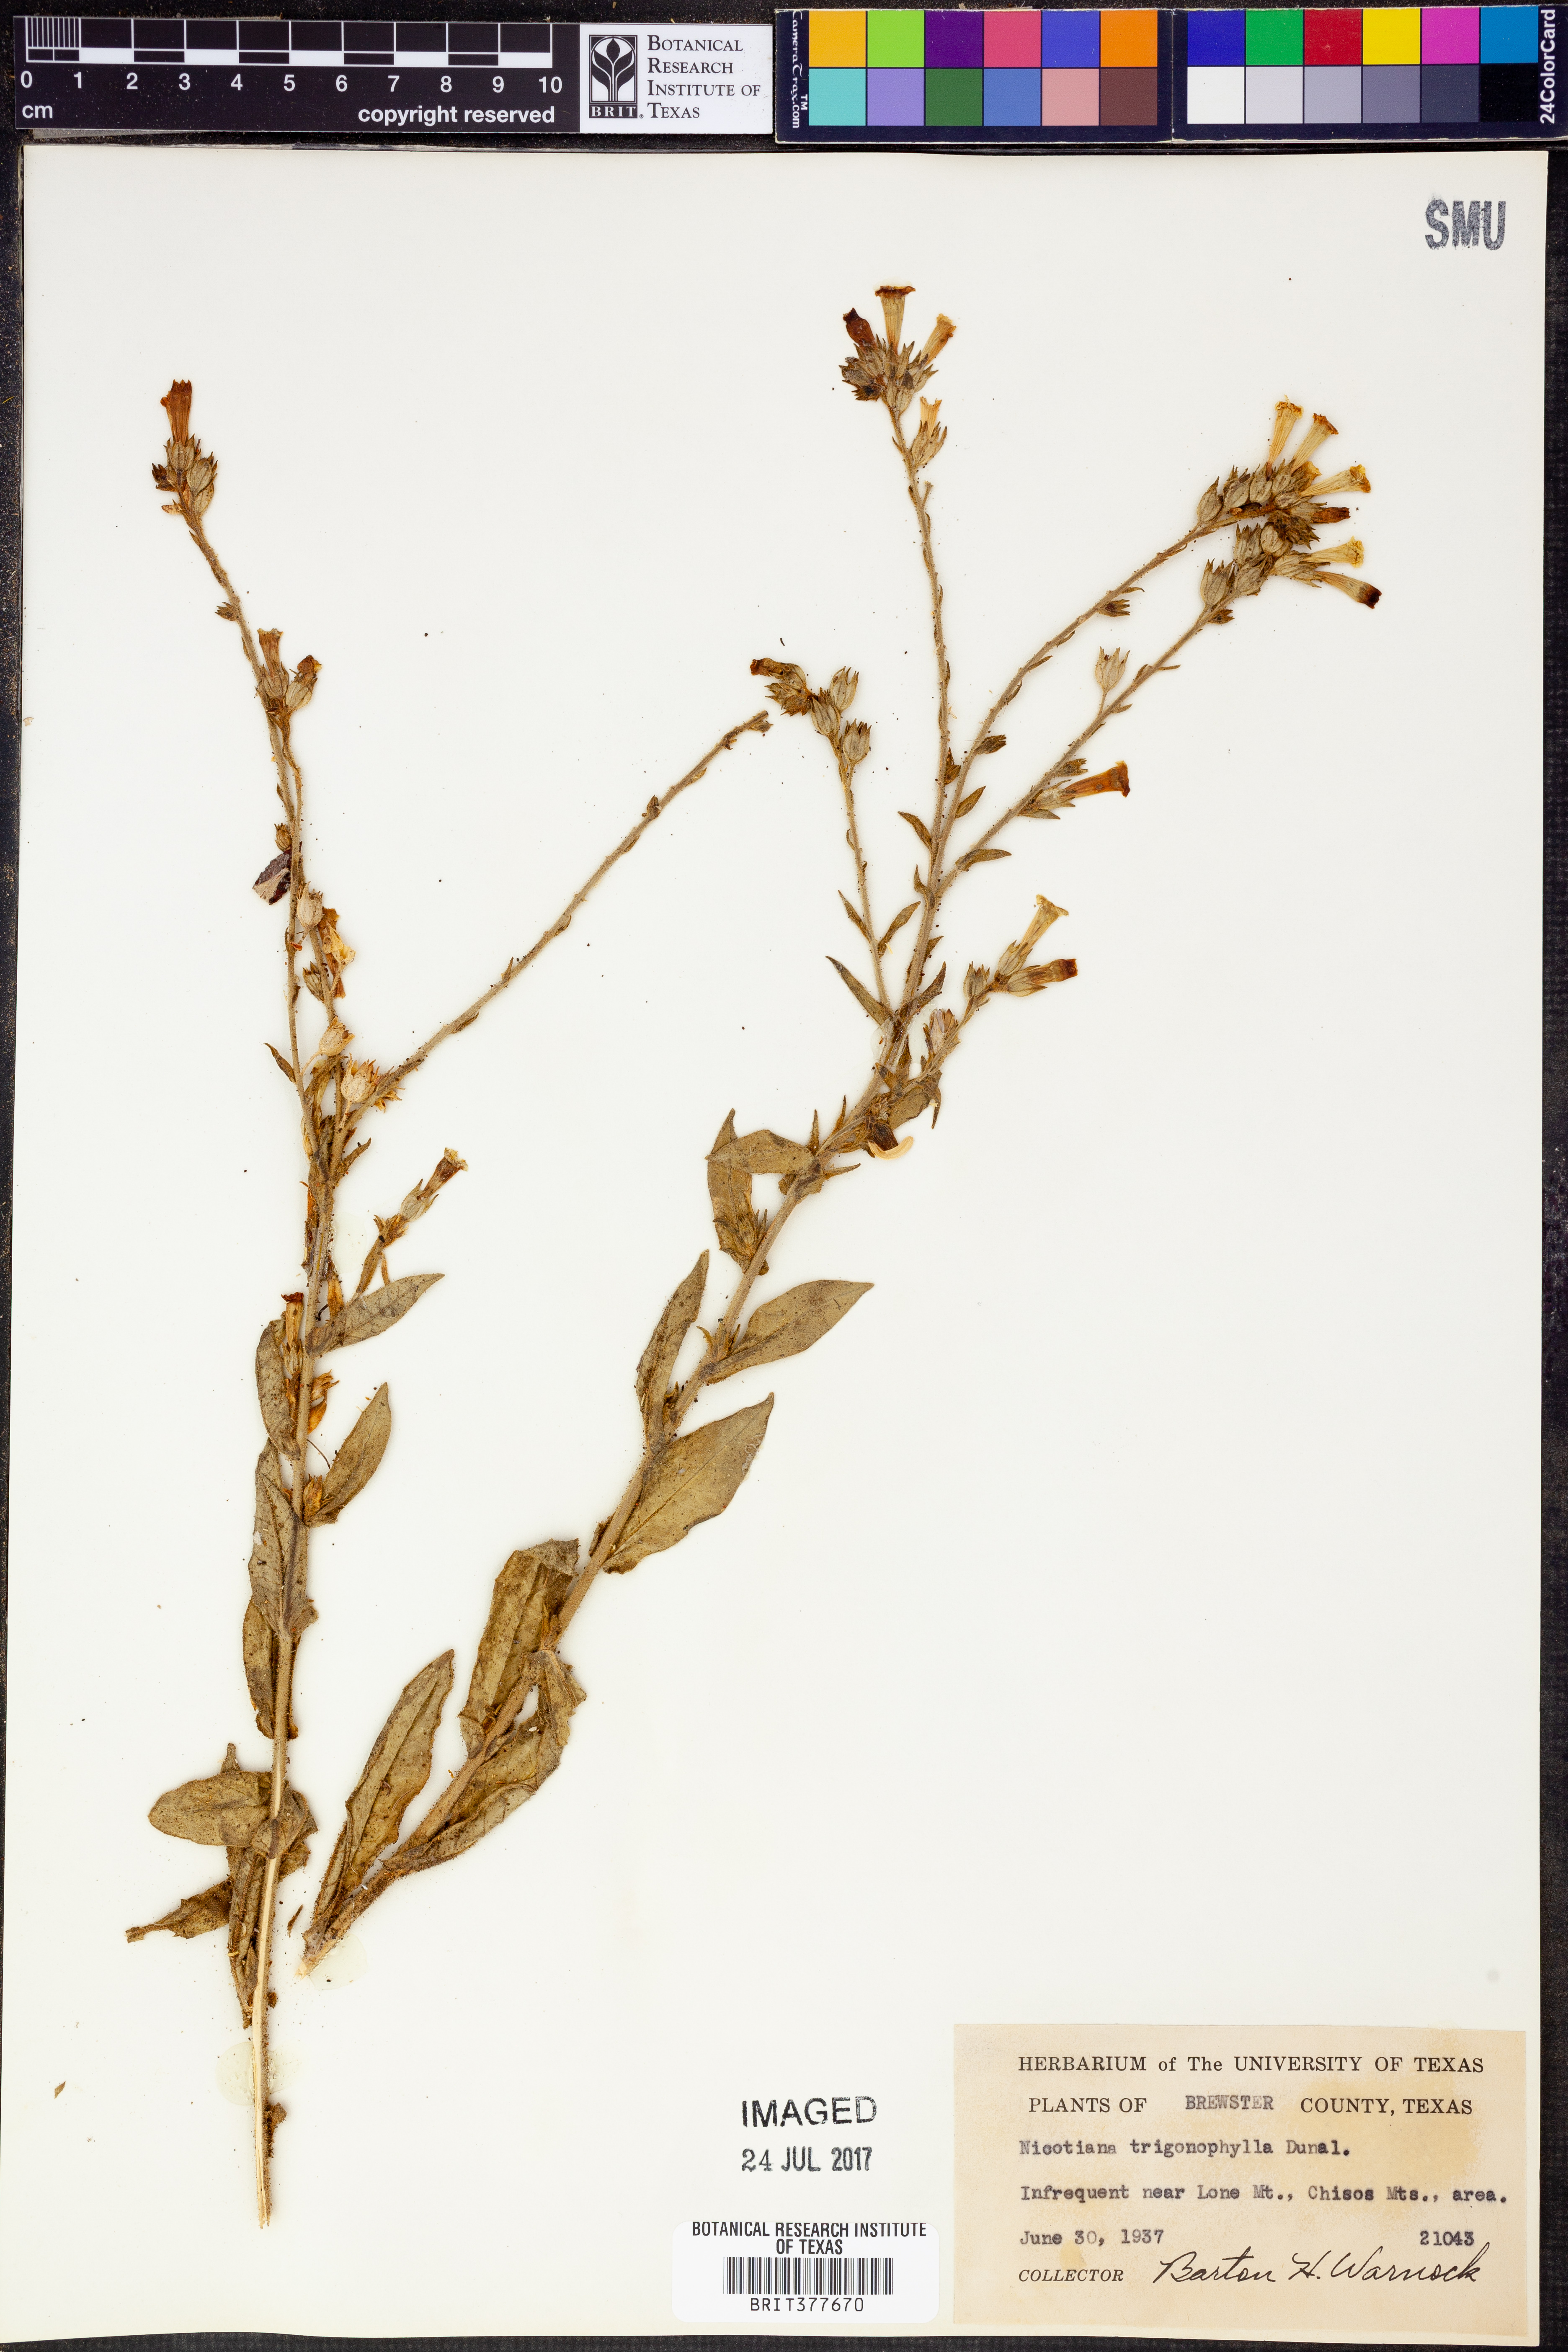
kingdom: Plantae
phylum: Tracheophyta
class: Magnoliopsida
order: Solanales
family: Solanaceae
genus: Nicotiana
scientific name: Nicotiana obtusifolia
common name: Desert tobacco
